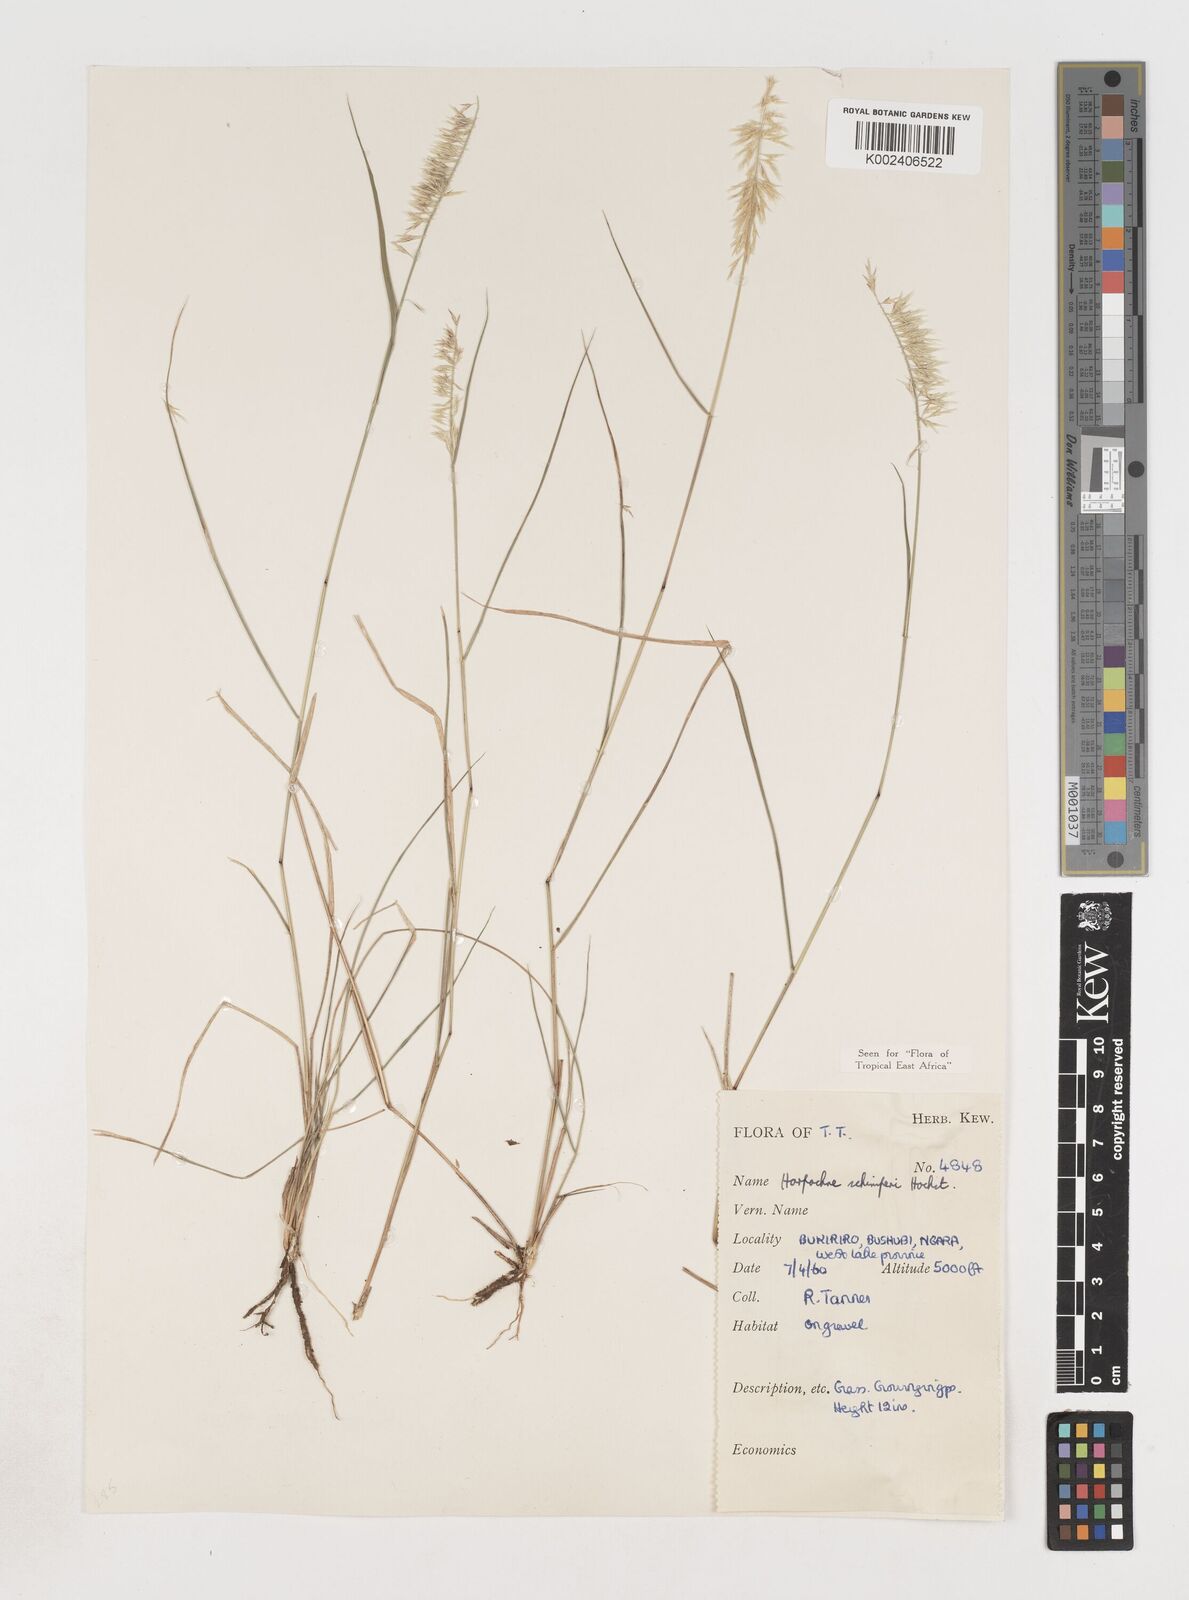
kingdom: Plantae
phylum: Tracheophyta
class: Liliopsida
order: Poales
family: Poaceae
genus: Harpachne
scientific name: Harpachne schimperi
